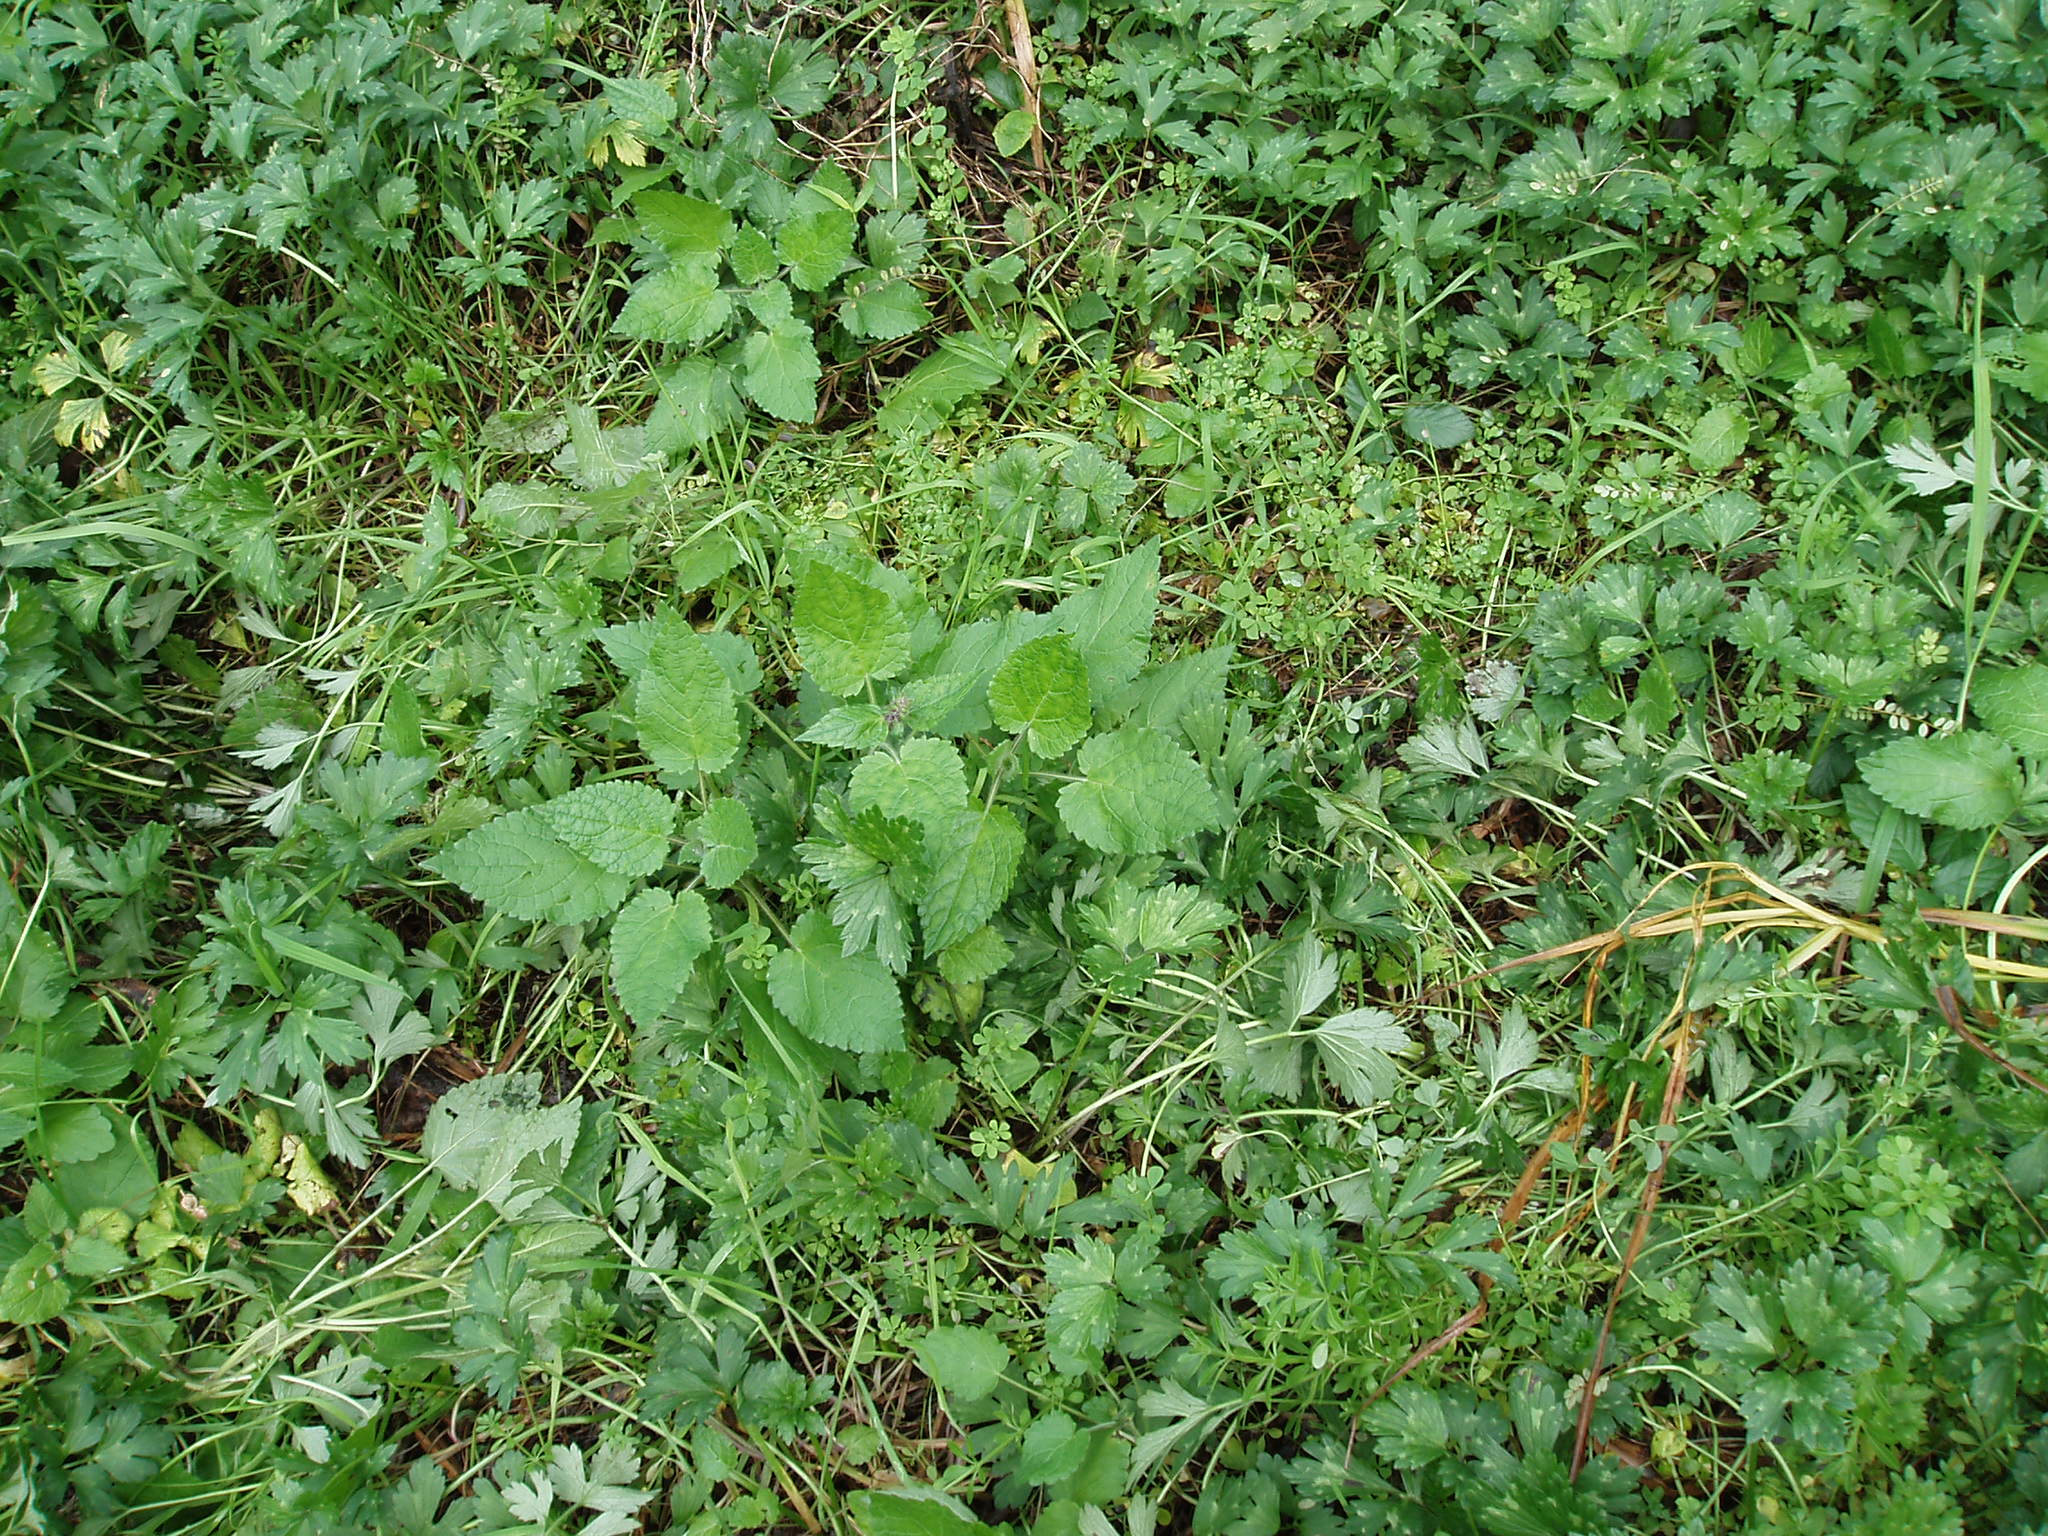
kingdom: Plantae
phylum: Tracheophyta
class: Magnoliopsida
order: Lamiales
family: Lamiaceae
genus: Stachys
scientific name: Stachys sylvatica
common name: Hedge woundwort
